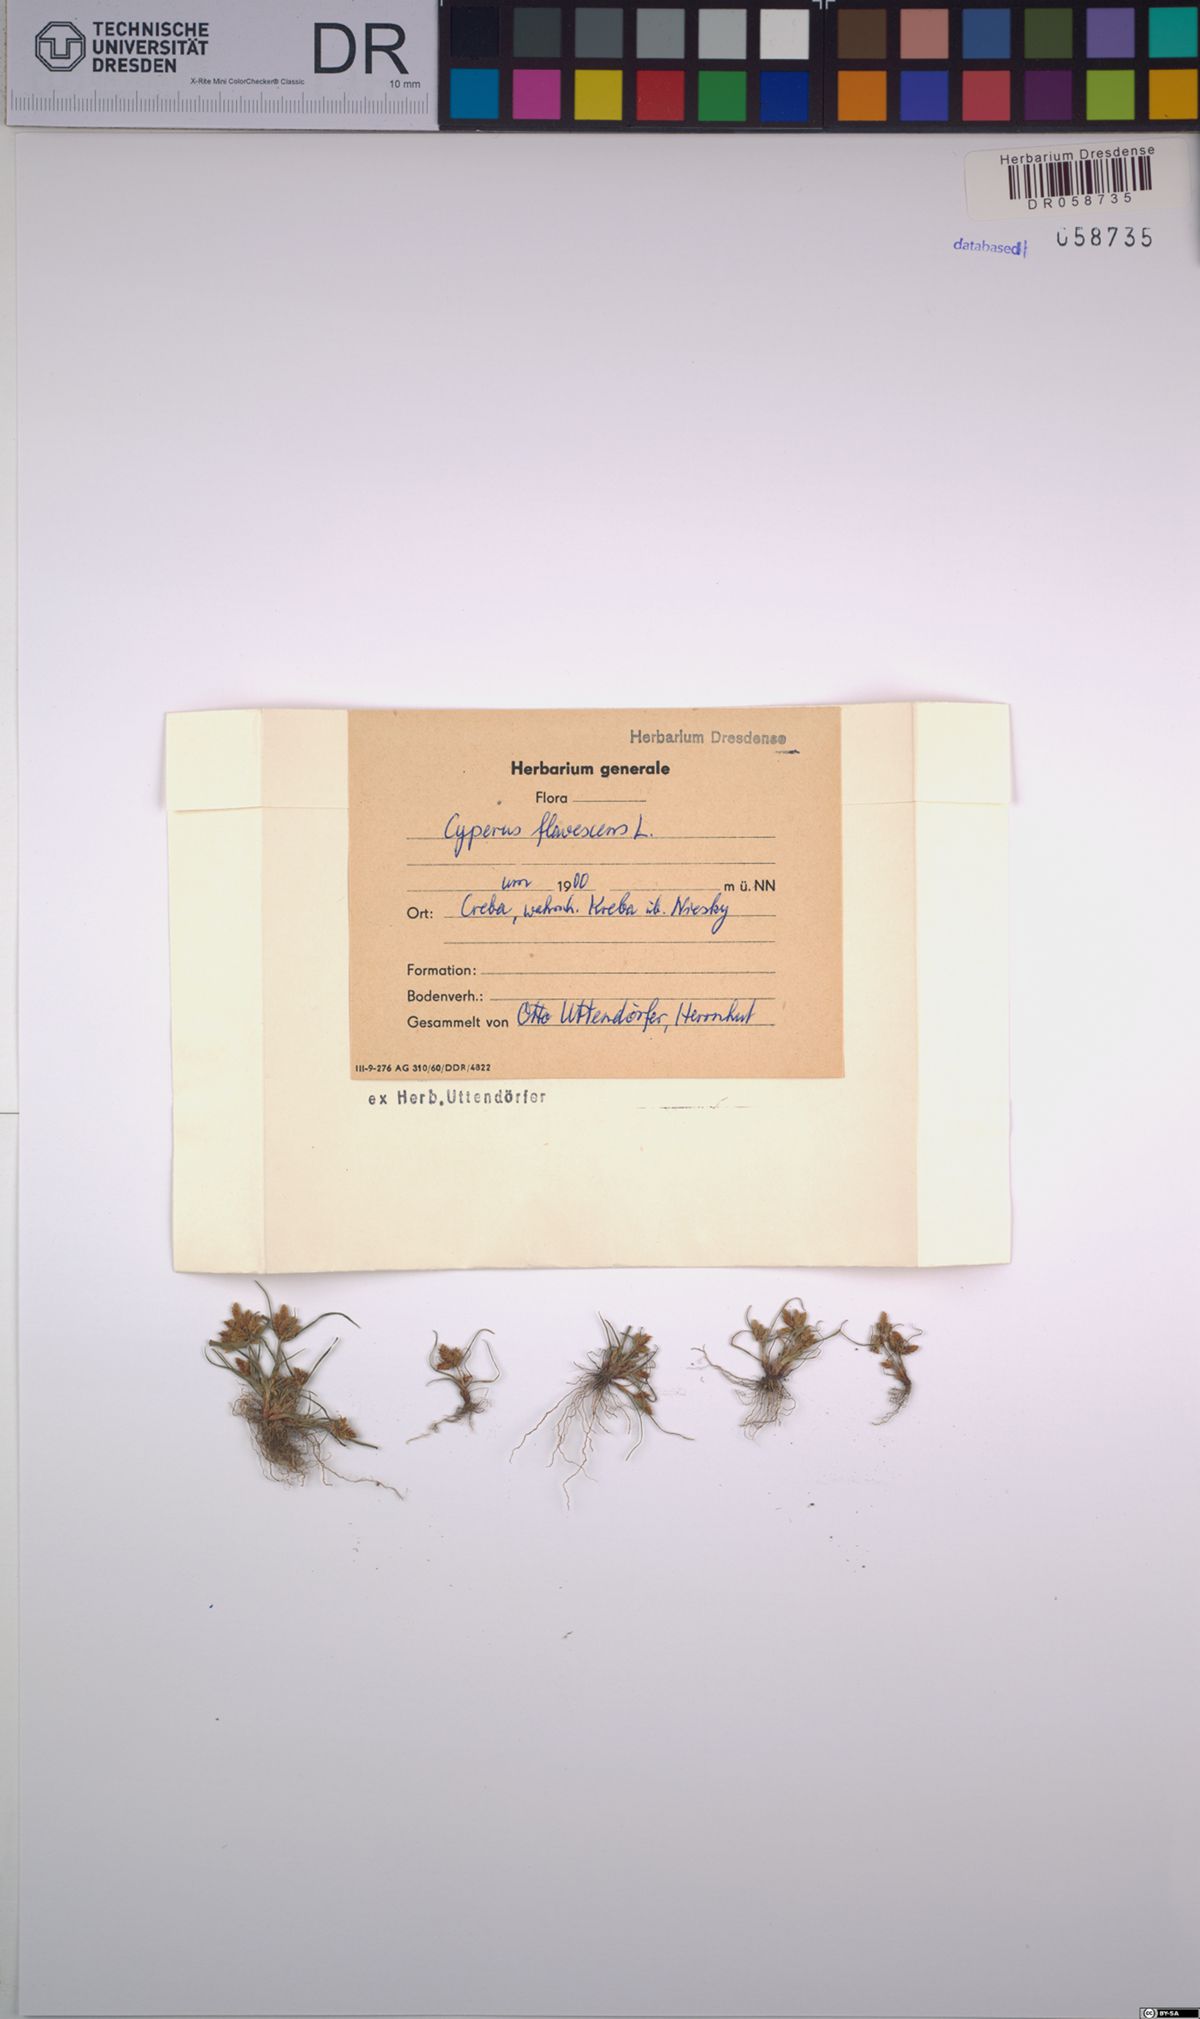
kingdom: Plantae
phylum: Tracheophyta
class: Liliopsida
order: Poales
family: Cyperaceae
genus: Cyperus
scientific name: Cyperus flavescens
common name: Yellow galingale
